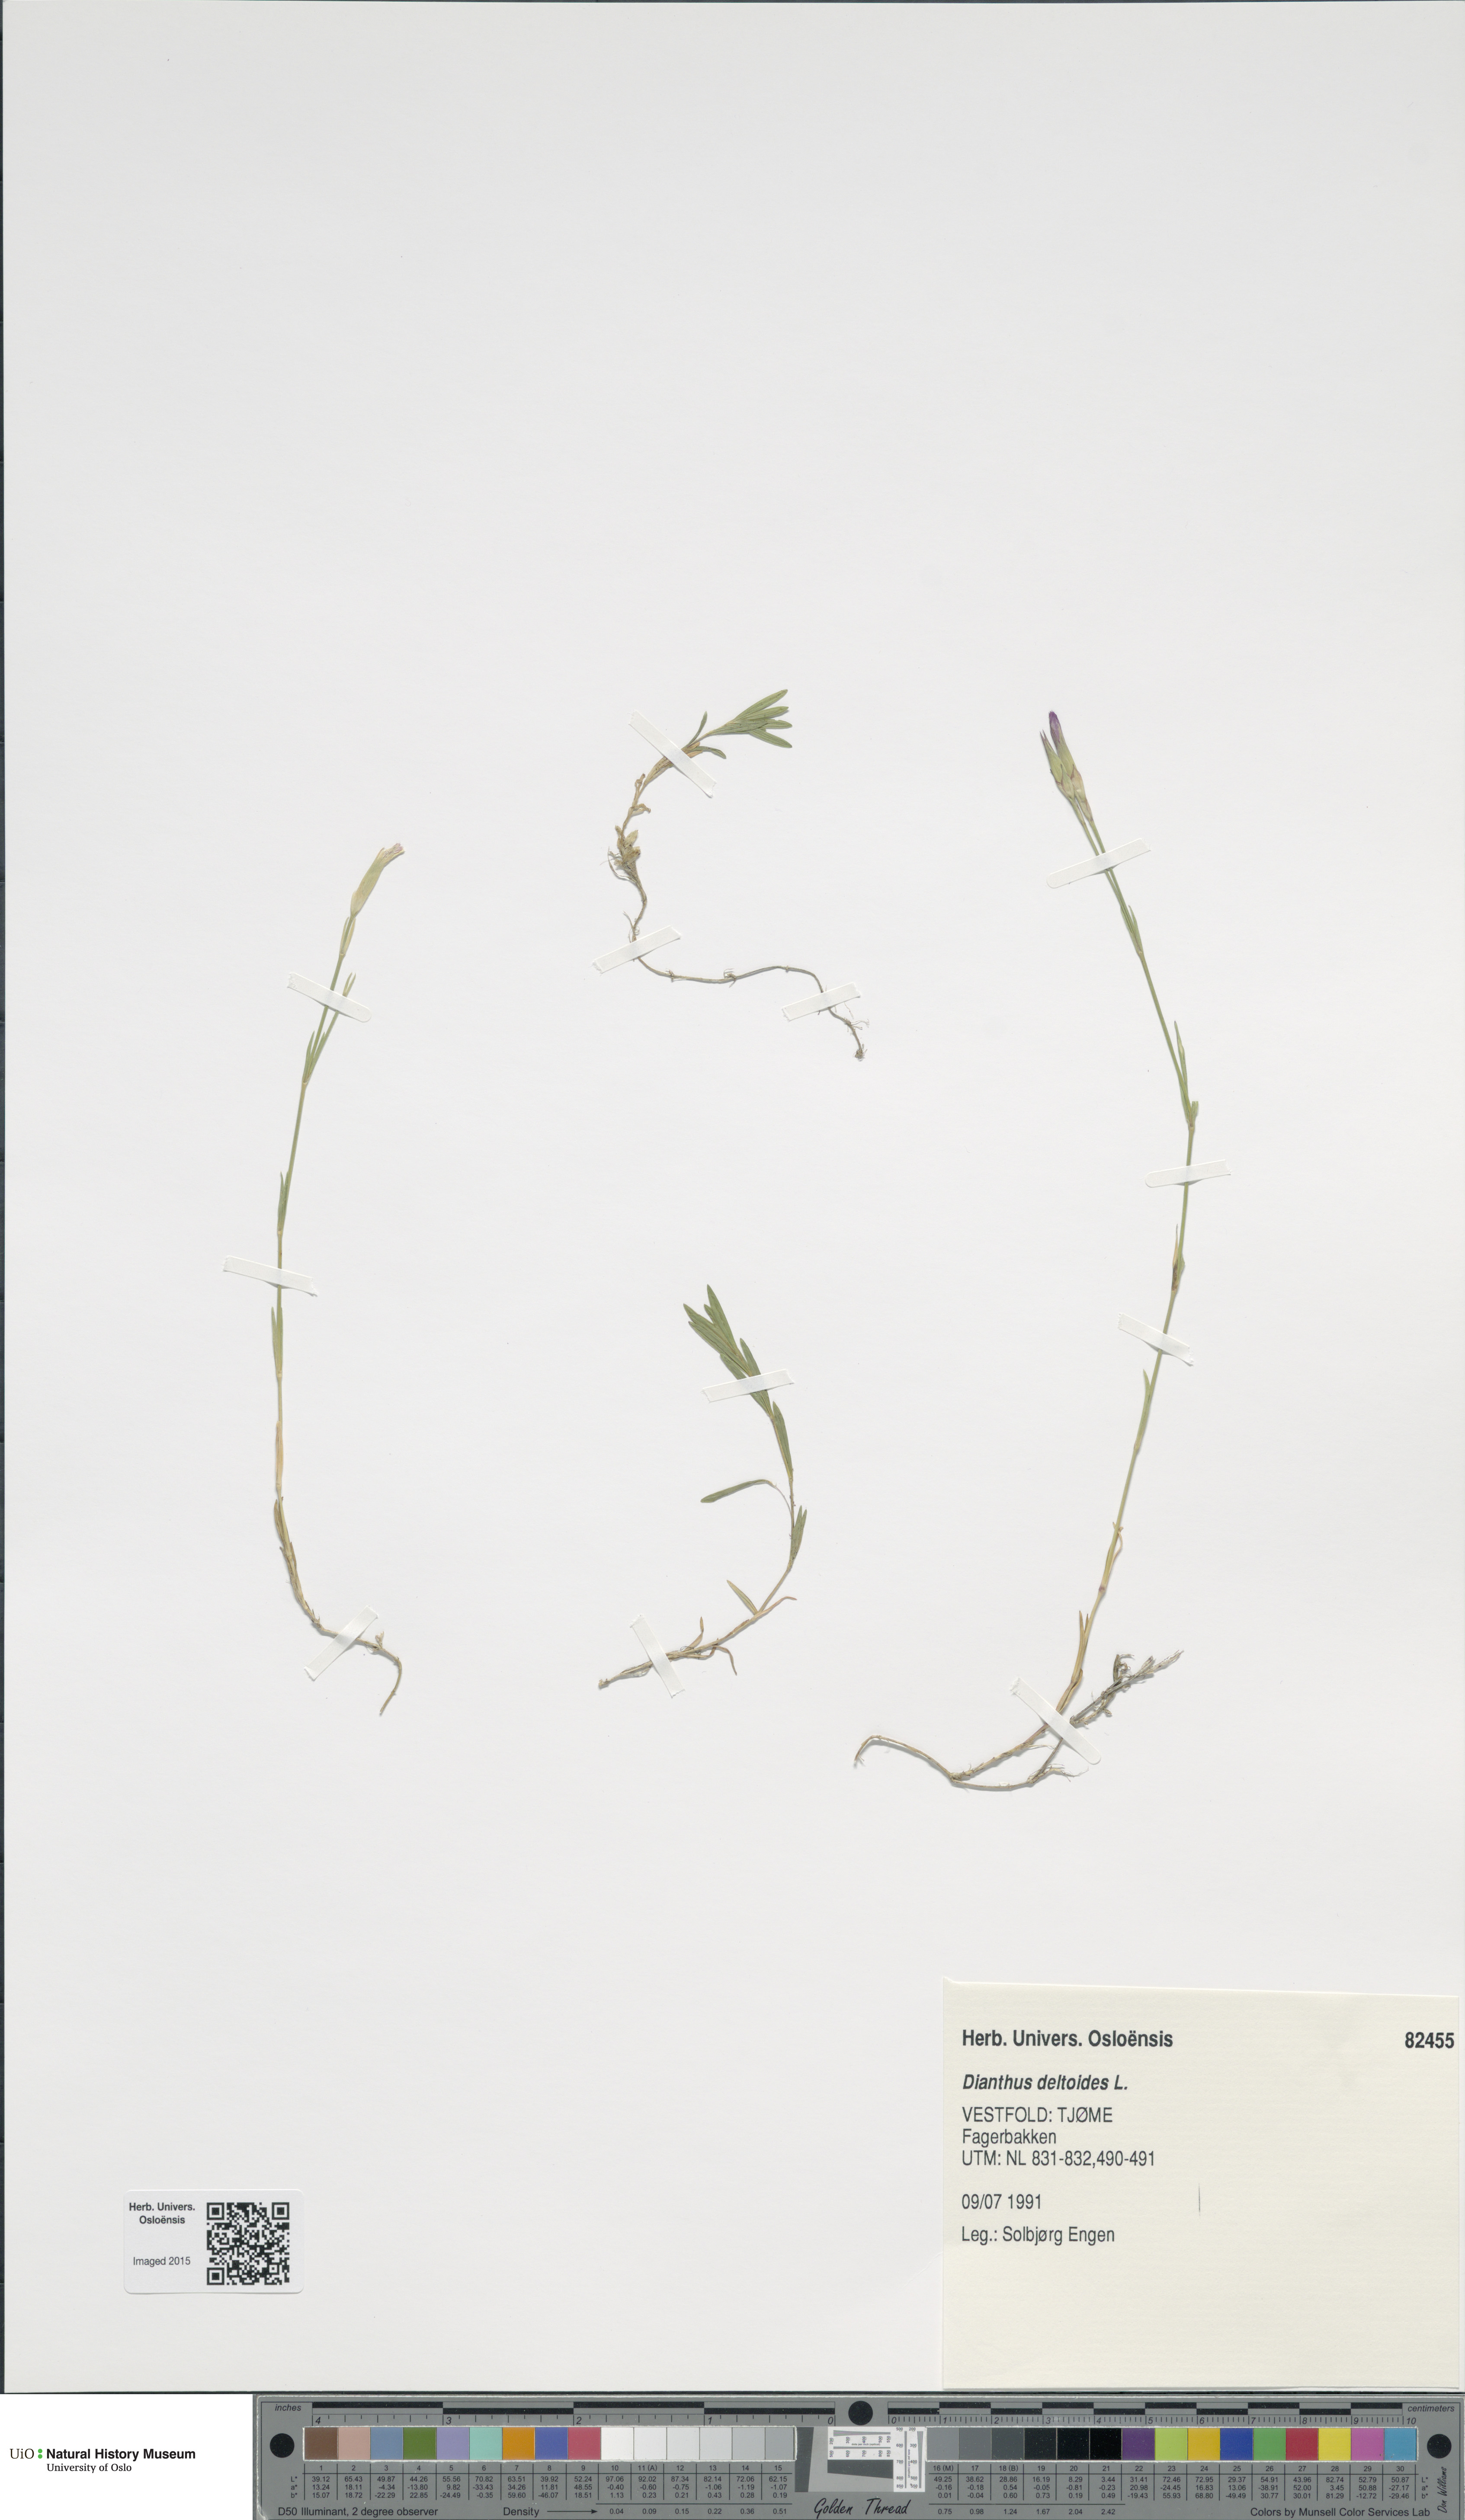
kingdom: Plantae
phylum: Tracheophyta
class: Magnoliopsida
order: Caryophyllales
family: Caryophyllaceae
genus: Dianthus
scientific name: Dianthus deltoides
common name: Maiden pink
